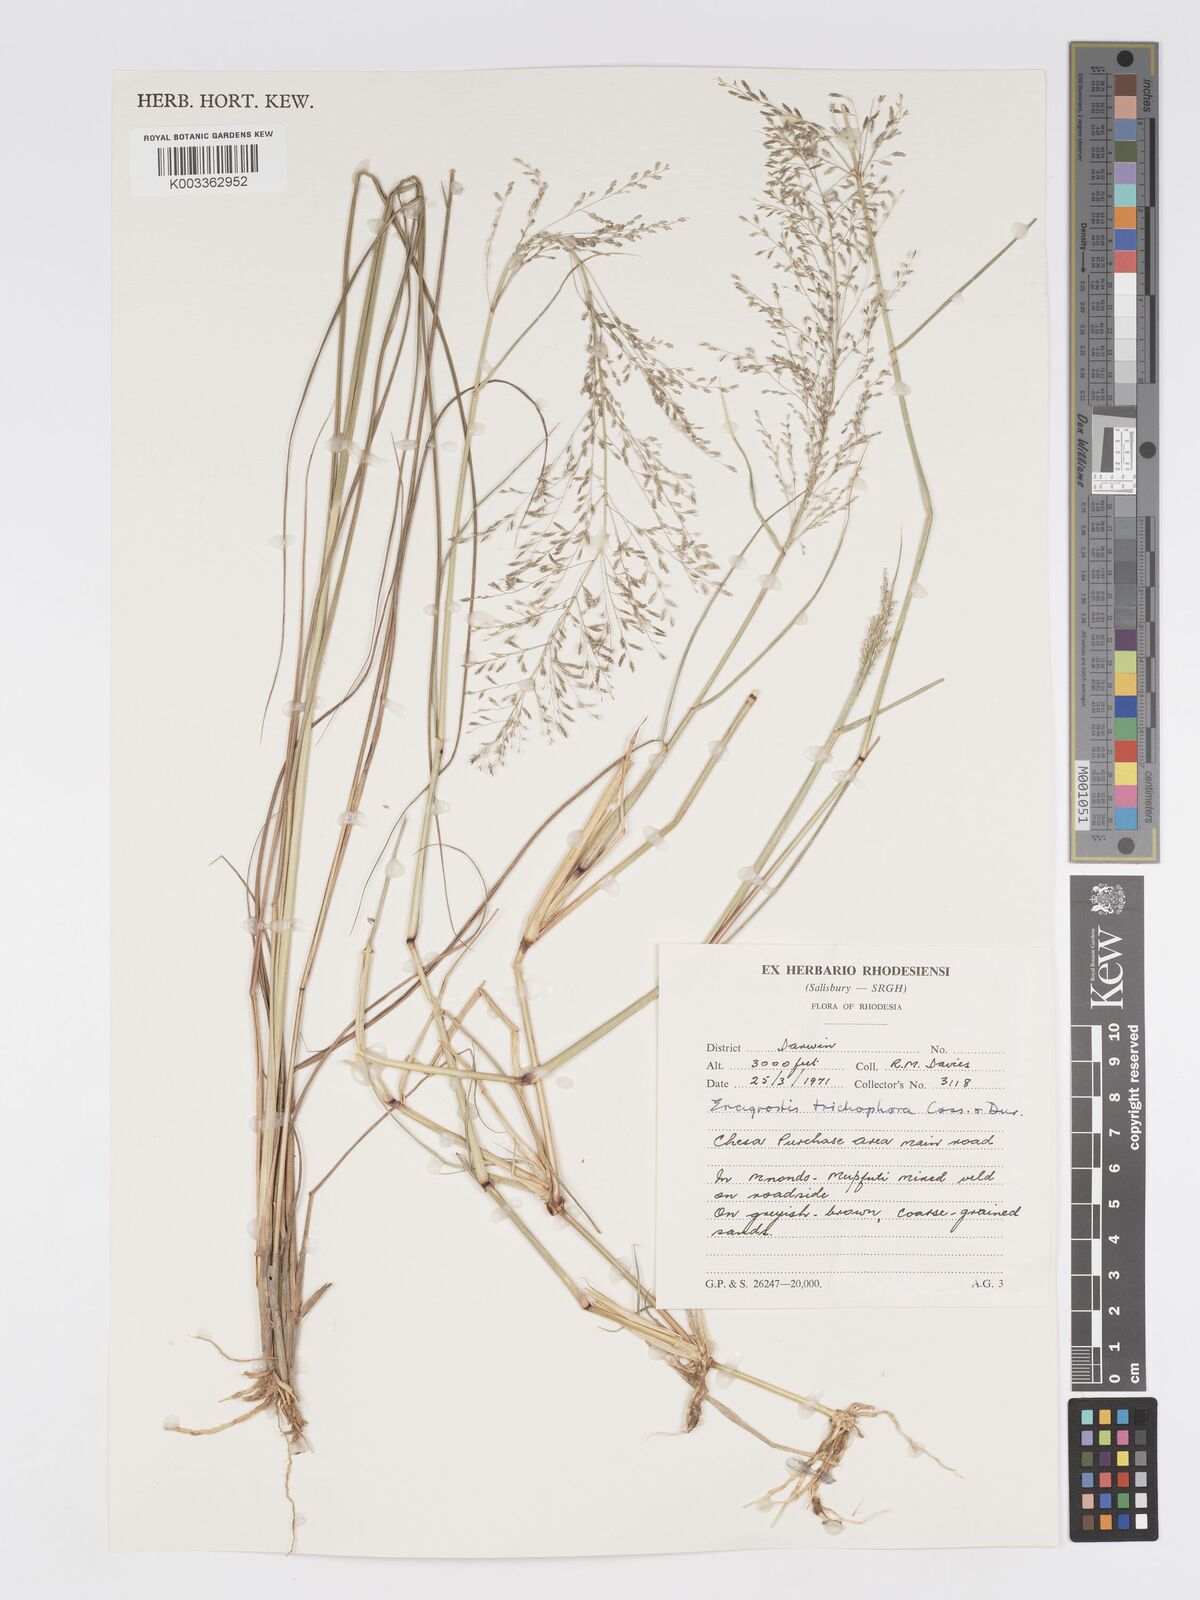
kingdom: Plantae
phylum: Tracheophyta
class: Liliopsida
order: Poales
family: Poaceae
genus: Eragrostis
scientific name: Eragrostis cylindriflora
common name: Cylinderflower lovegrass
